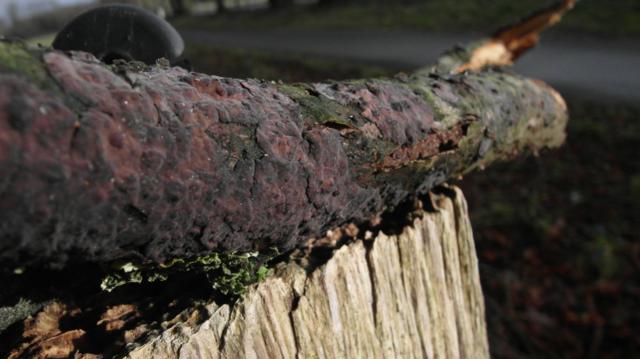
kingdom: Fungi
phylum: Basidiomycota
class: Agaricomycetes
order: Russulales
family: Peniophoraceae
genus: Peniophora
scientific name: Peniophora rufomarginata
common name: linde-voksskind
